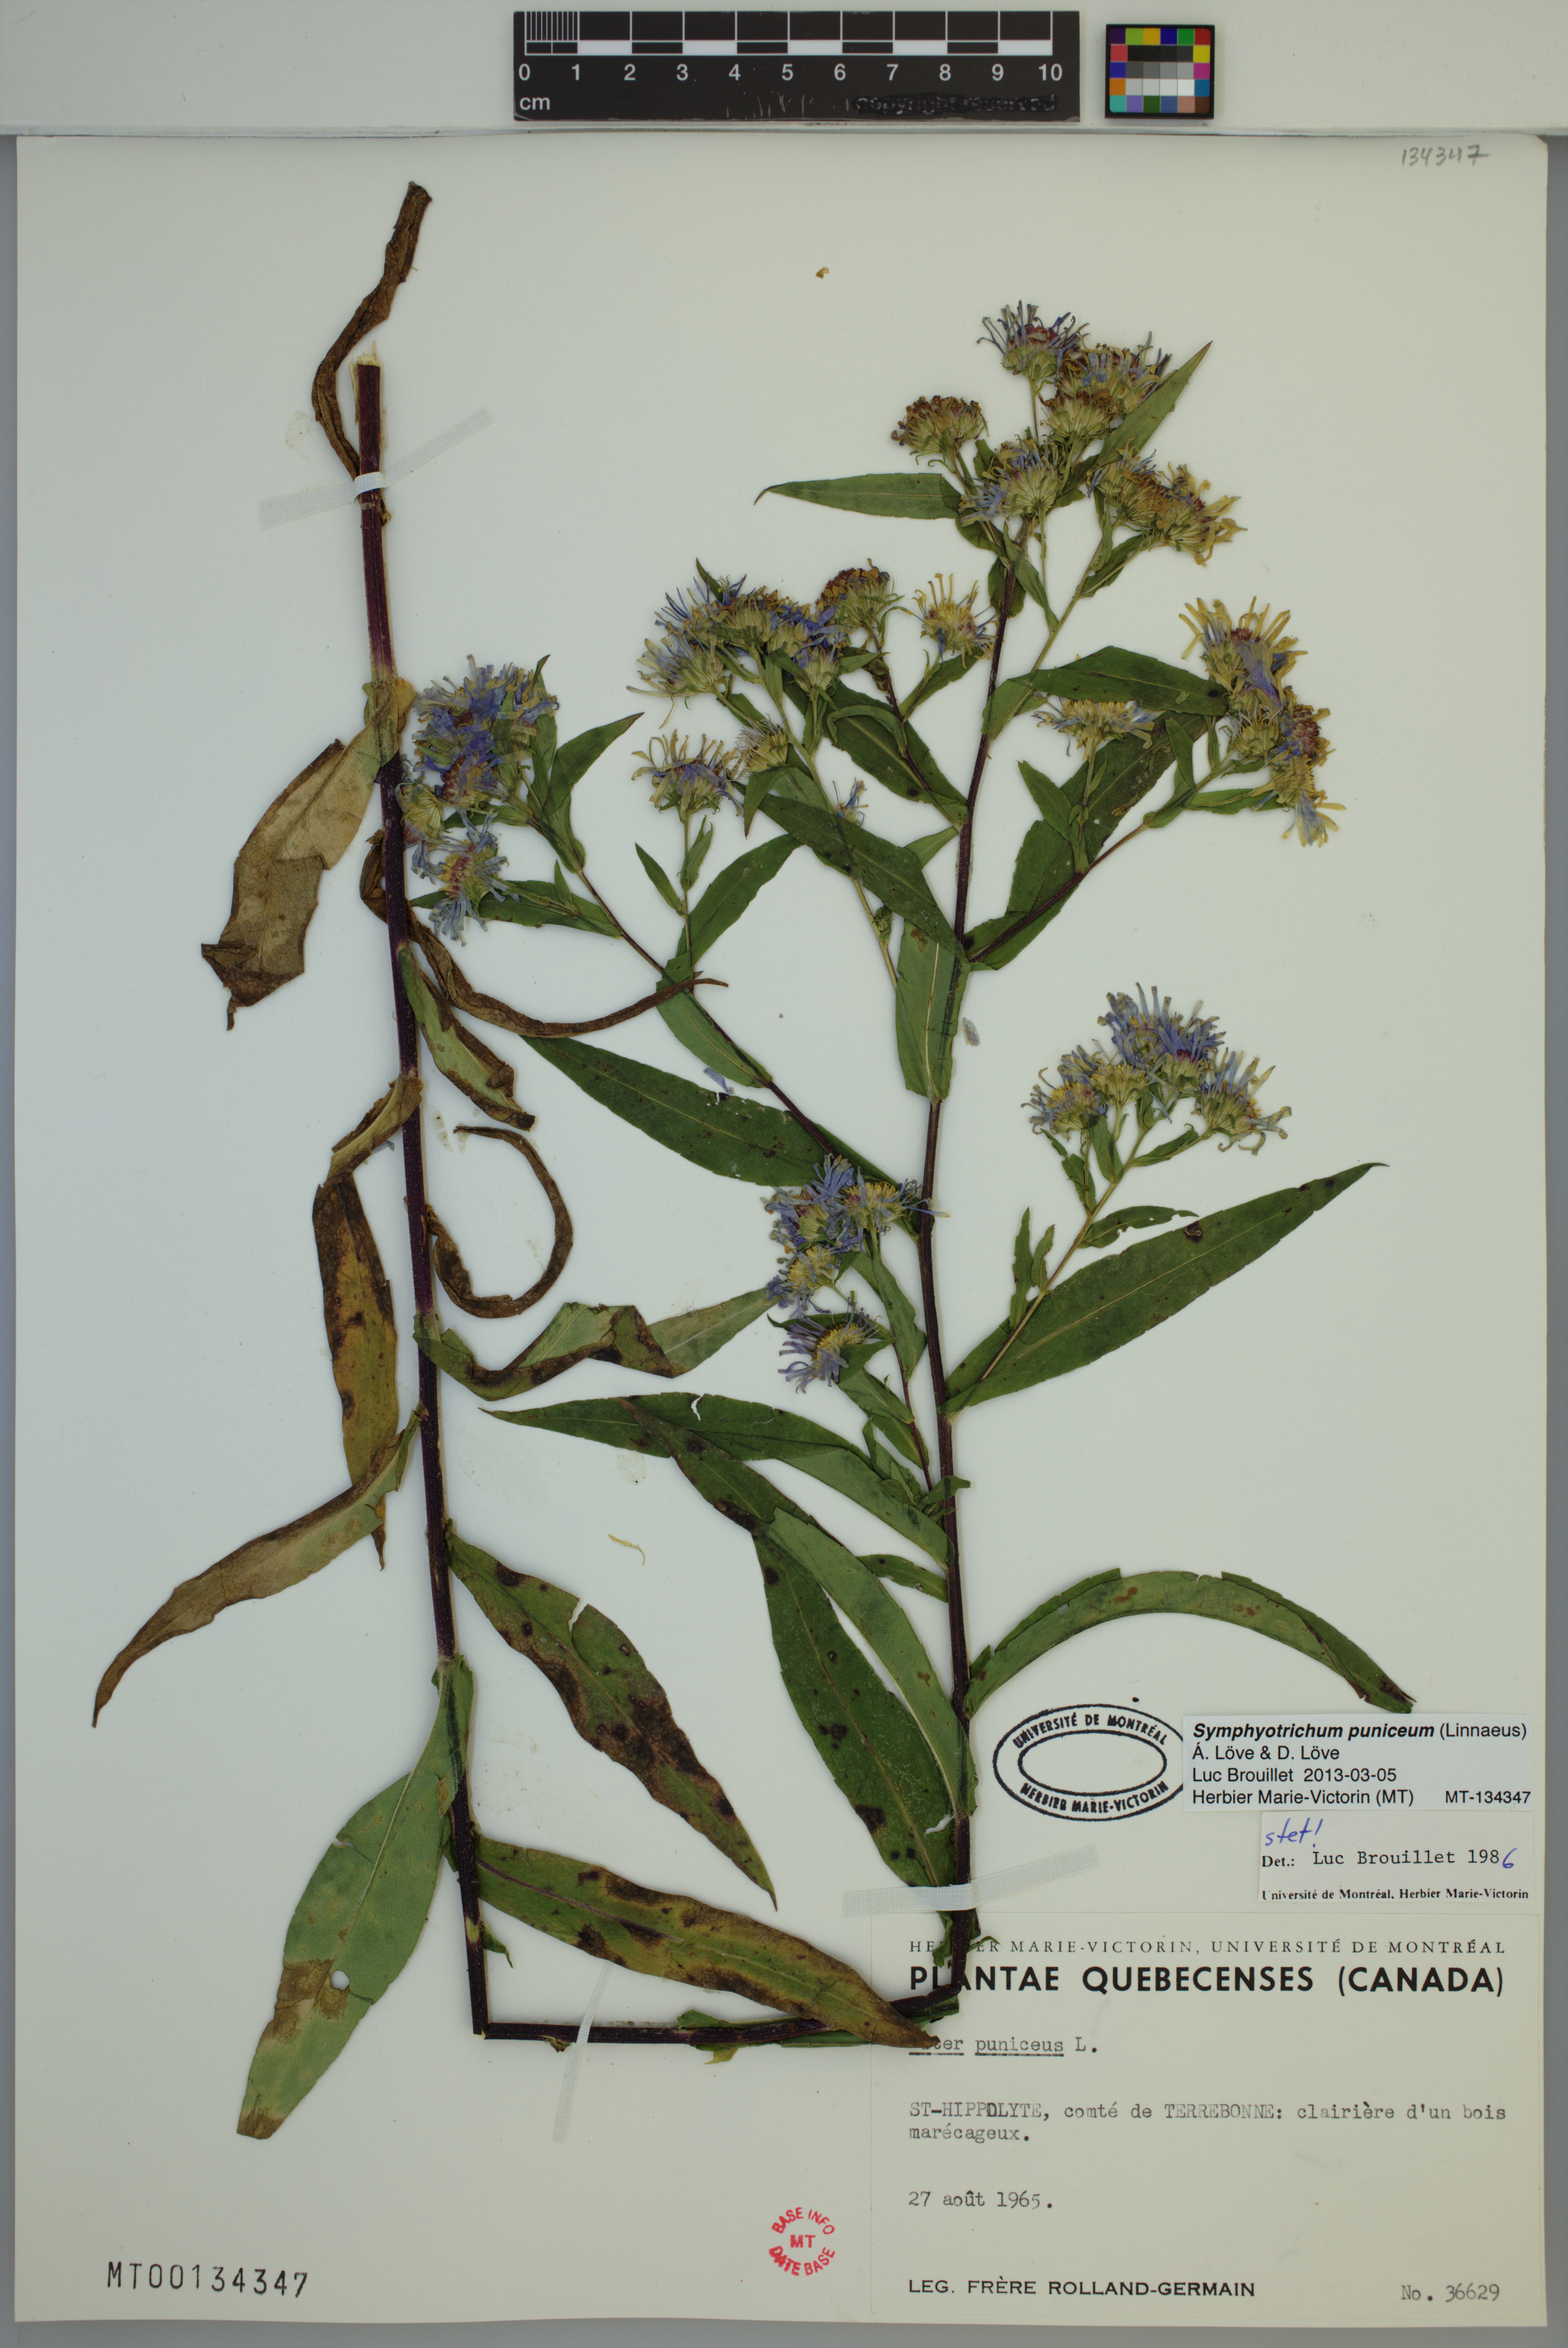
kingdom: Plantae
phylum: Tracheophyta
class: Magnoliopsida
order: Asterales
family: Asteraceae
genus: Symphyotrichum
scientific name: Symphyotrichum puniceum
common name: Bog aster
